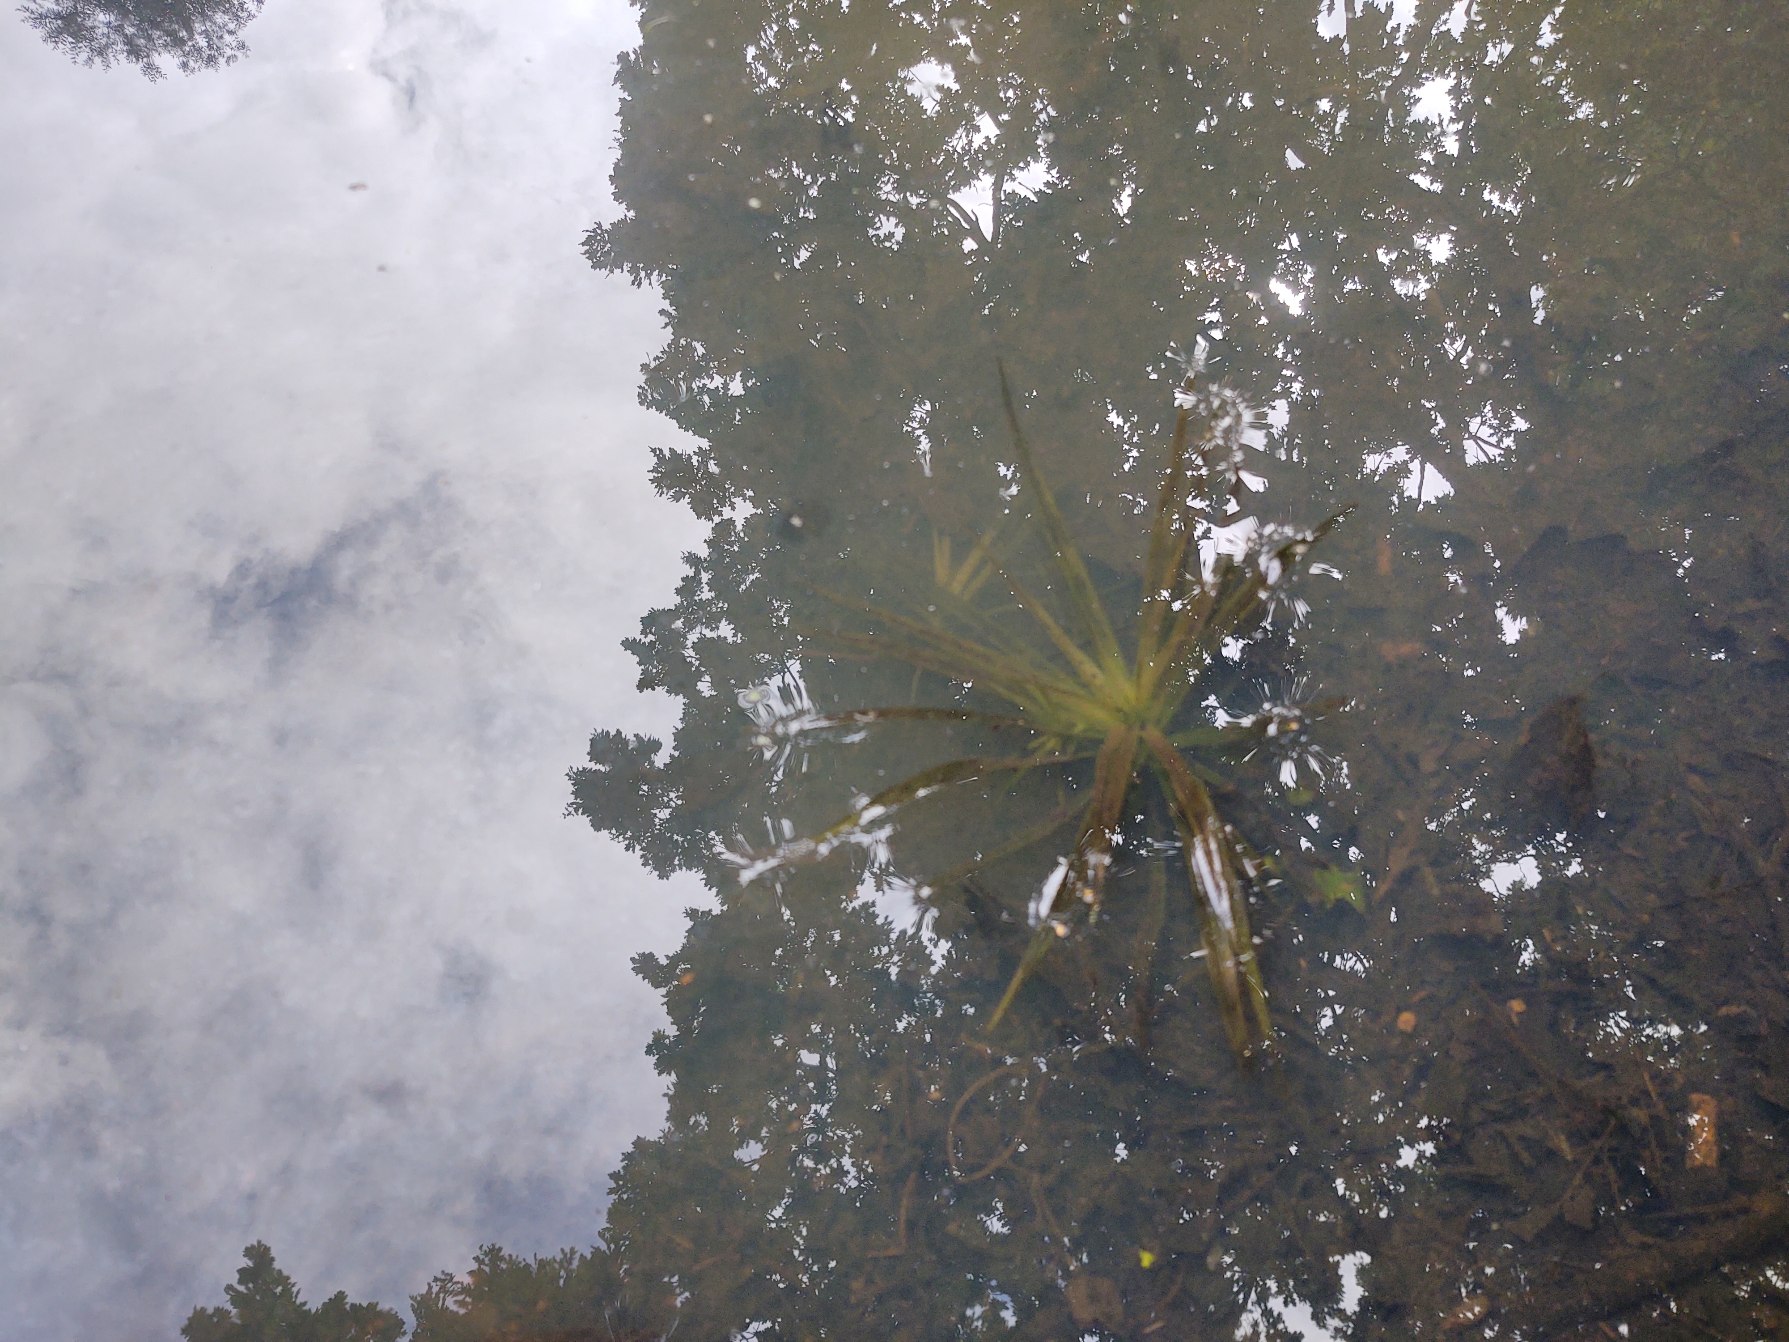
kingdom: Plantae
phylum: Tracheophyta
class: Liliopsida
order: Alismatales
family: Hydrocharitaceae
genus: Stratiotes
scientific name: Stratiotes aloides
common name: Krebseklo
